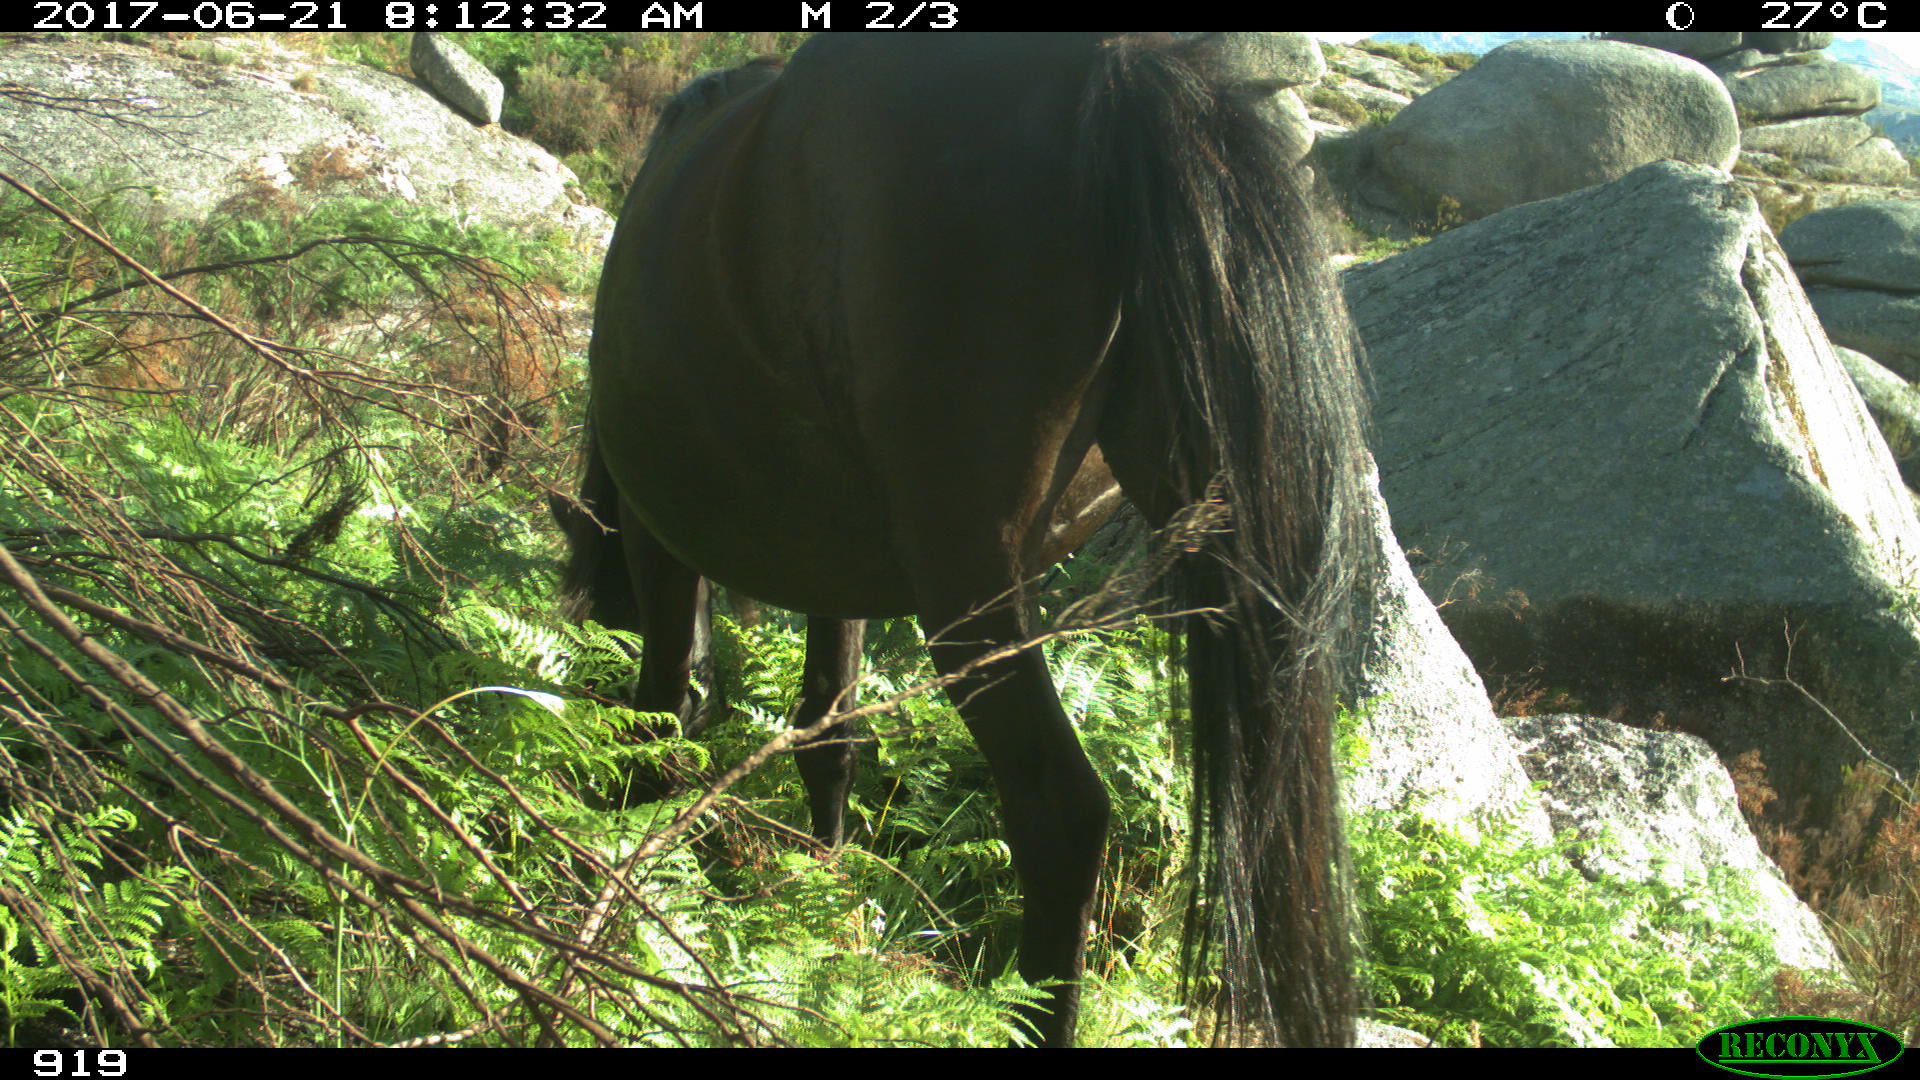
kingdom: Animalia
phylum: Chordata
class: Mammalia
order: Perissodactyla
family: Equidae
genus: Equus
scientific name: Equus caballus
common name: Horse
